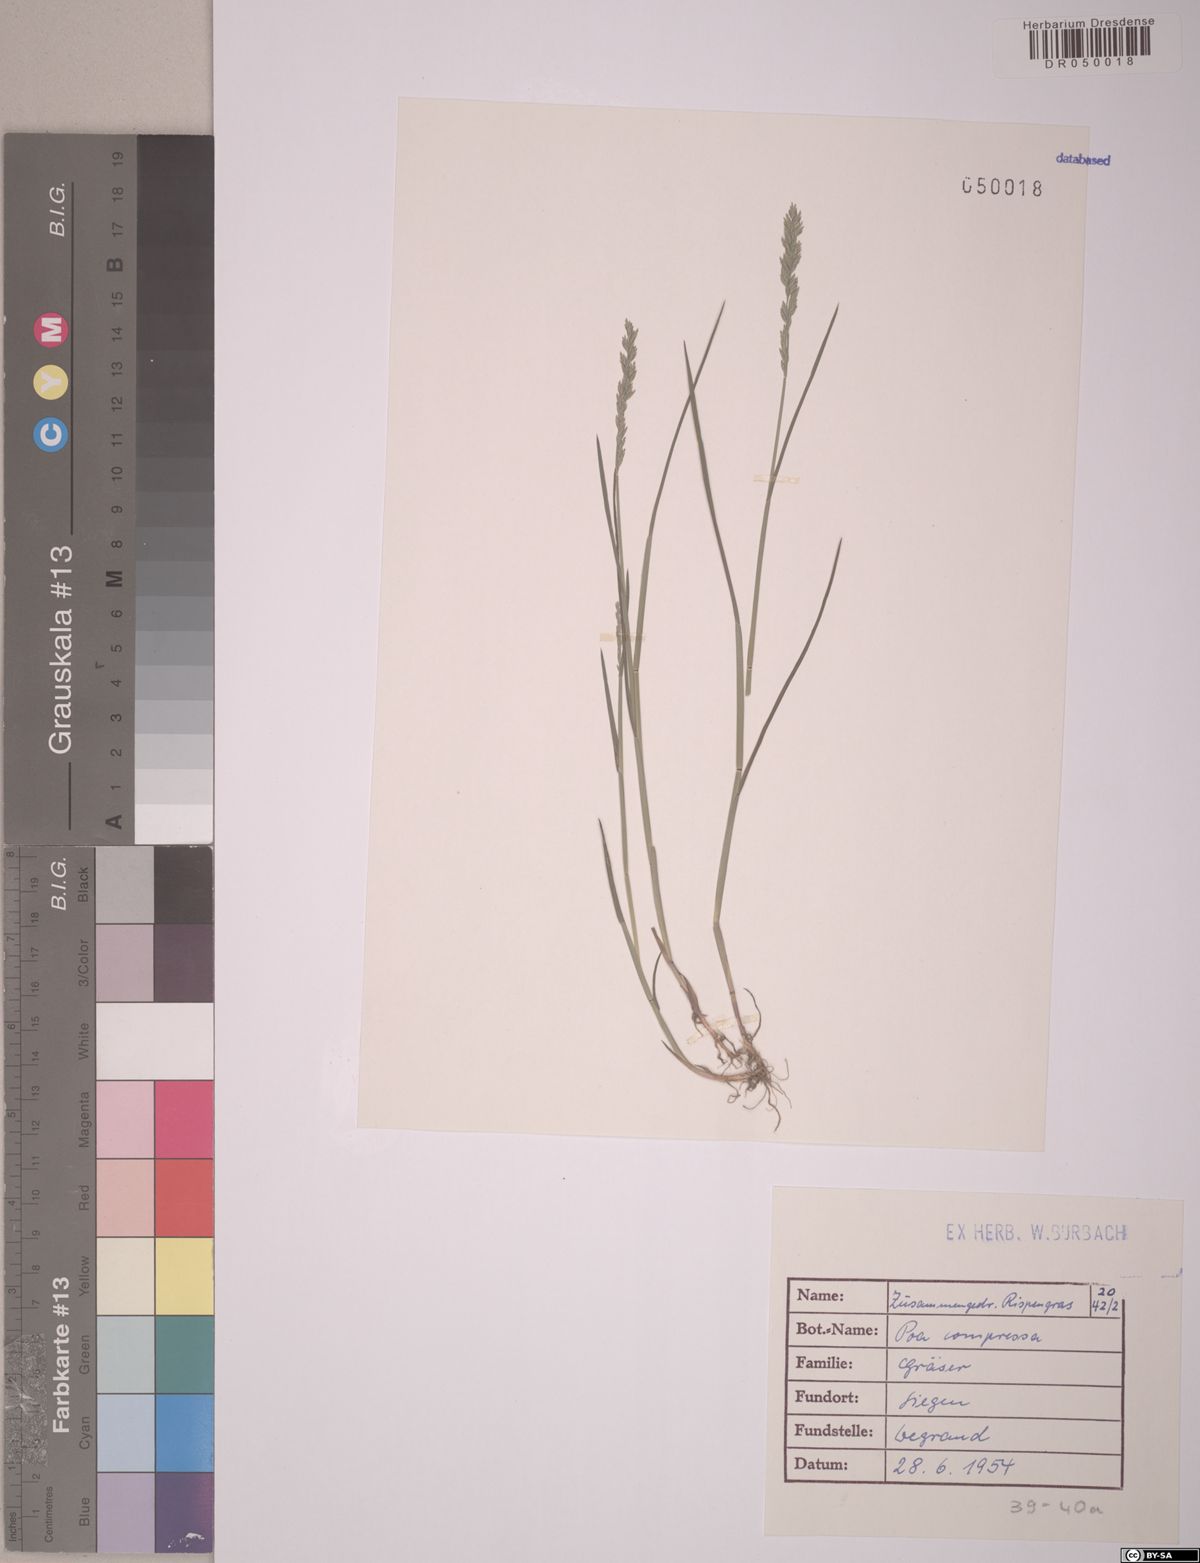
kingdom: Plantae
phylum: Tracheophyta
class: Liliopsida
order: Poales
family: Poaceae
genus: Poa
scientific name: Poa compressa
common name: Canada bluegrass
